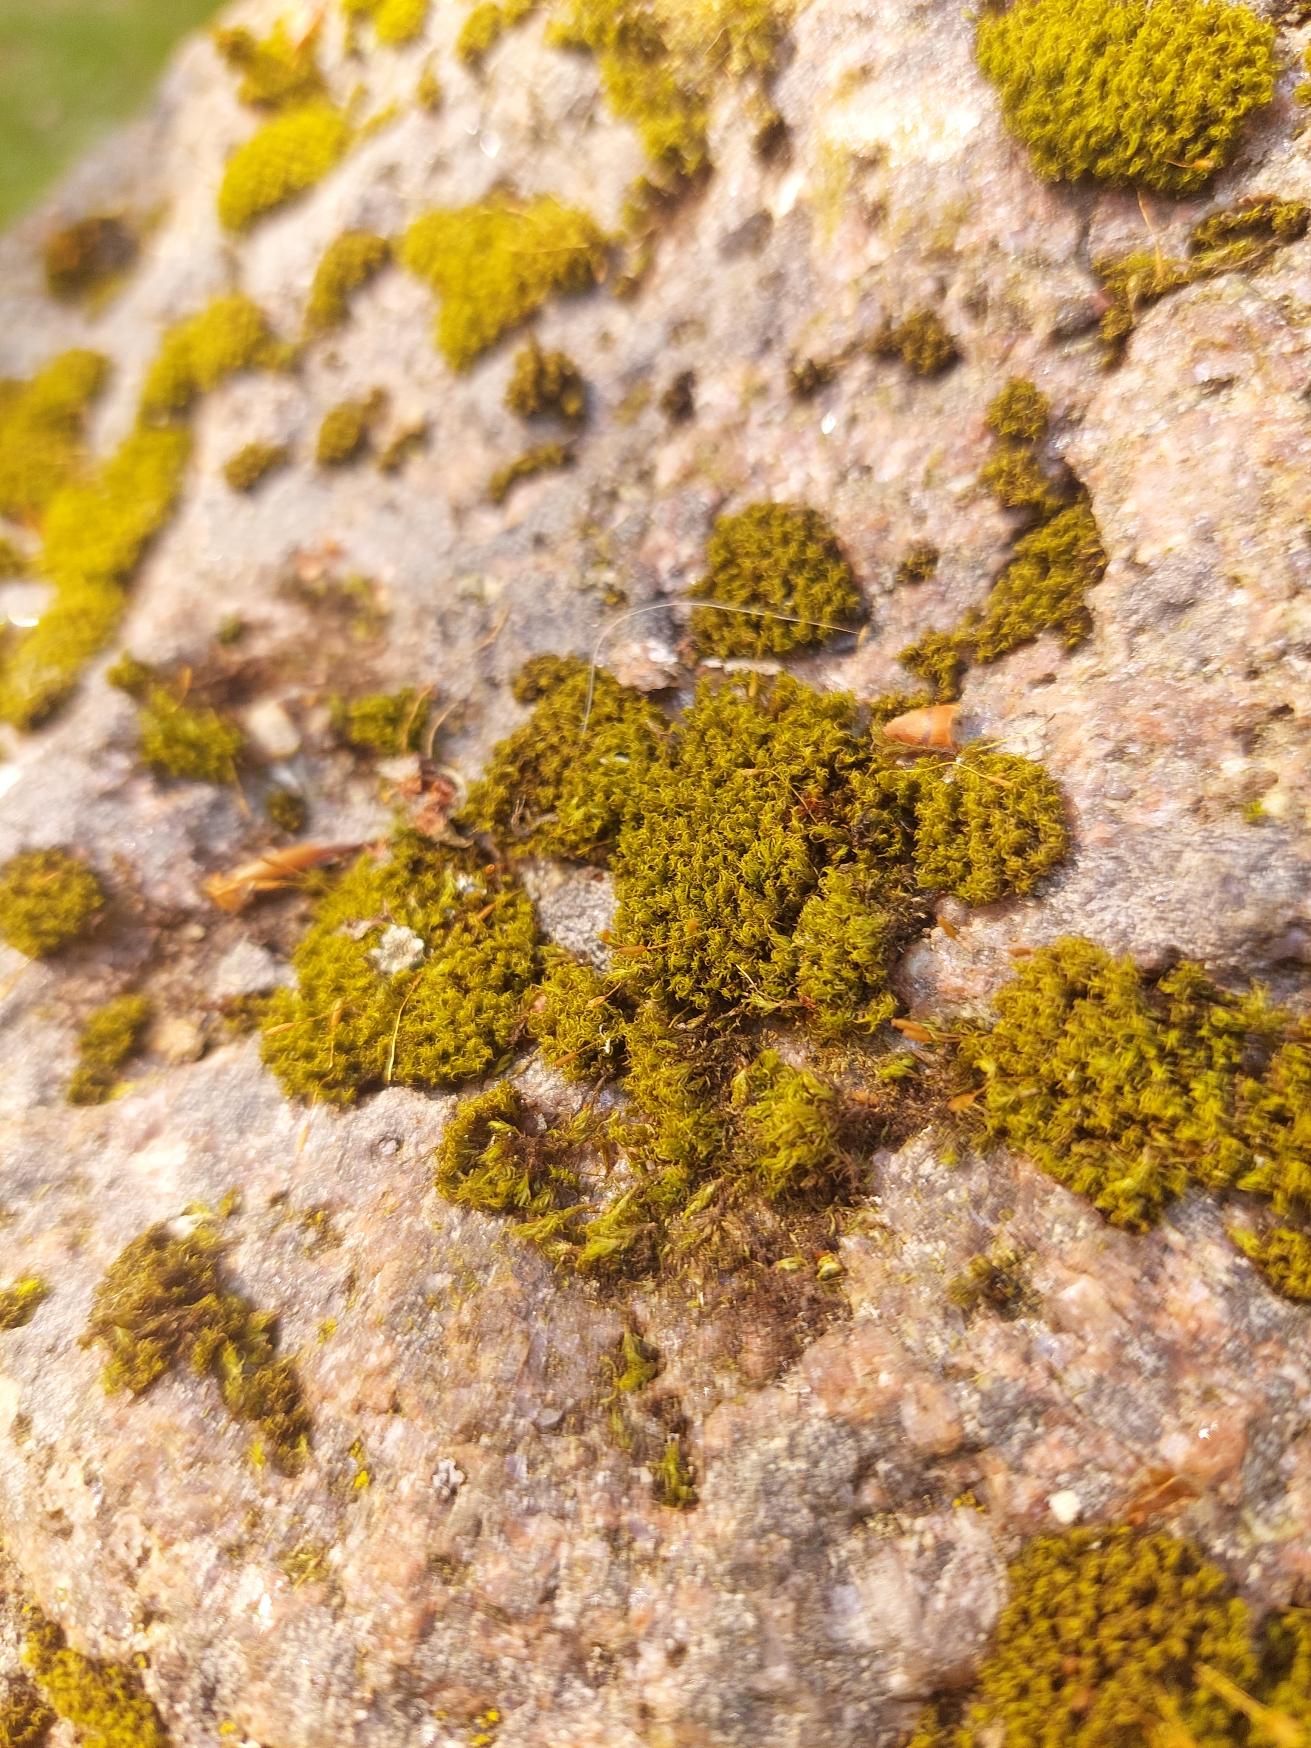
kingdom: Plantae
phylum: Bryophyta
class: Bryopsida
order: Dicranales
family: Rhabdoweisiaceae
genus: Dicranoweisia
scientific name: Dicranoweisia cirrata
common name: Almindelig krøltuemos
